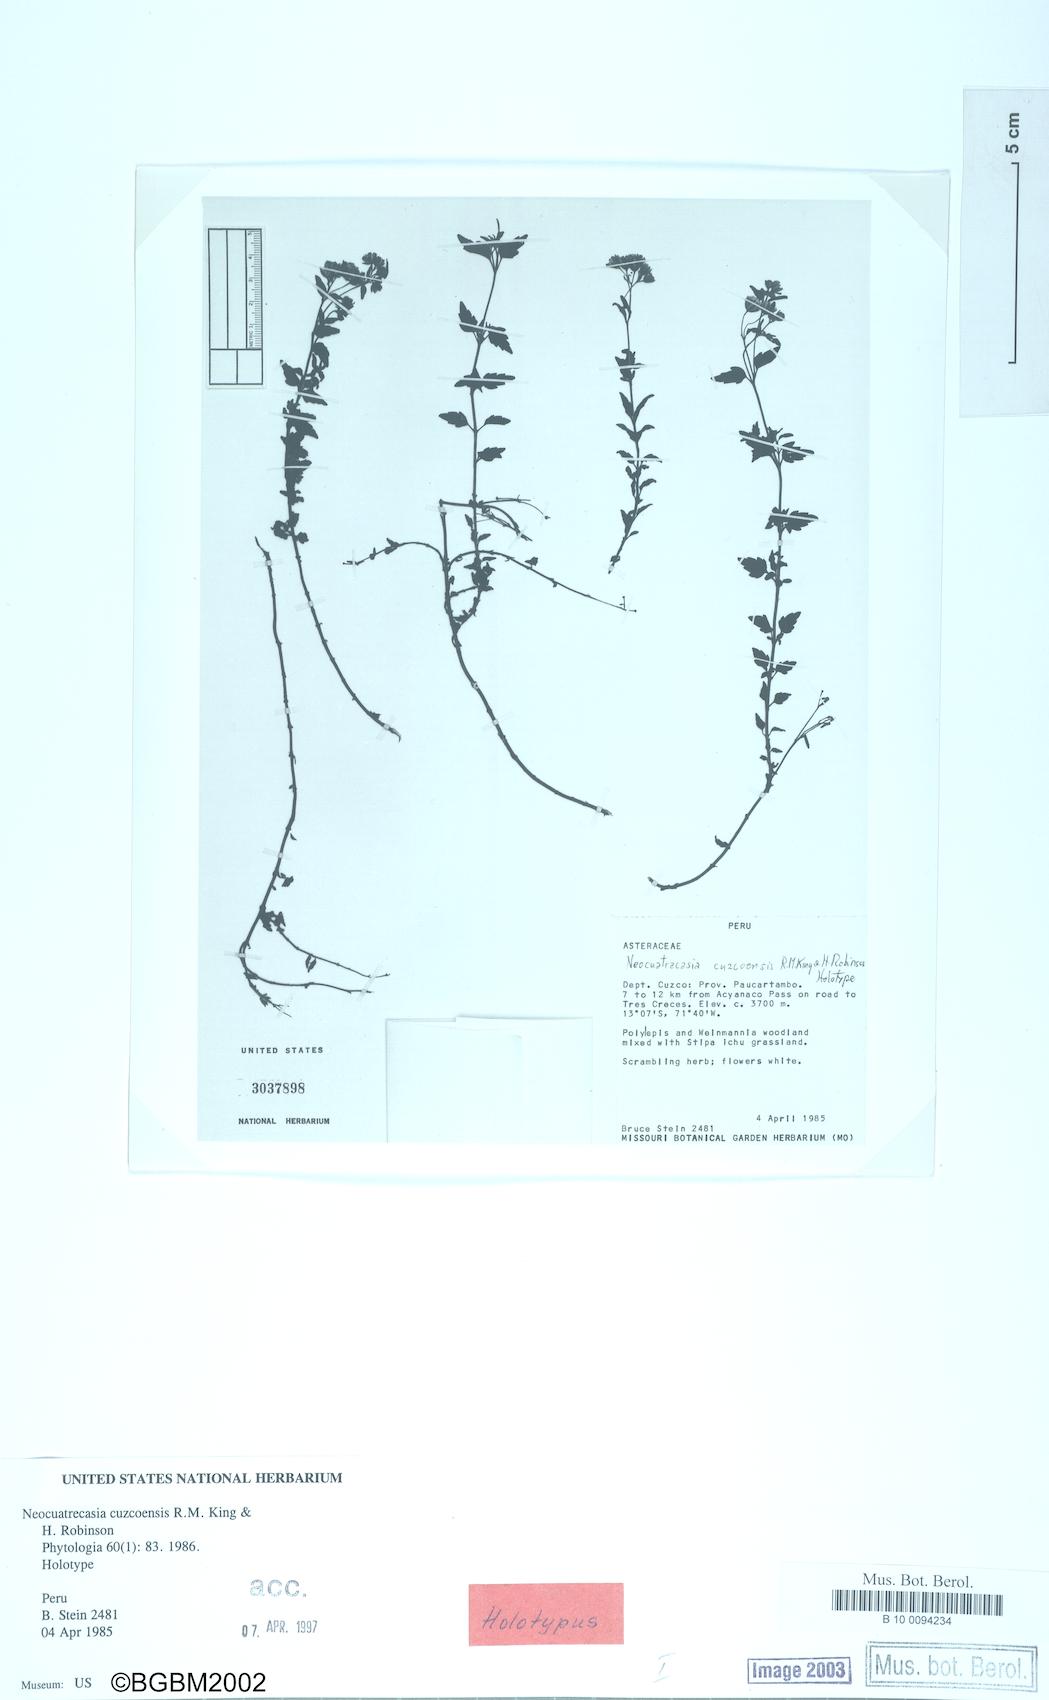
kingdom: Plantae
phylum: Tracheophyta
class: Magnoliopsida
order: Asterales
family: Asteraceae
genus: Neocuatrecasia
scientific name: Neocuatrecasia cuzcoensis
